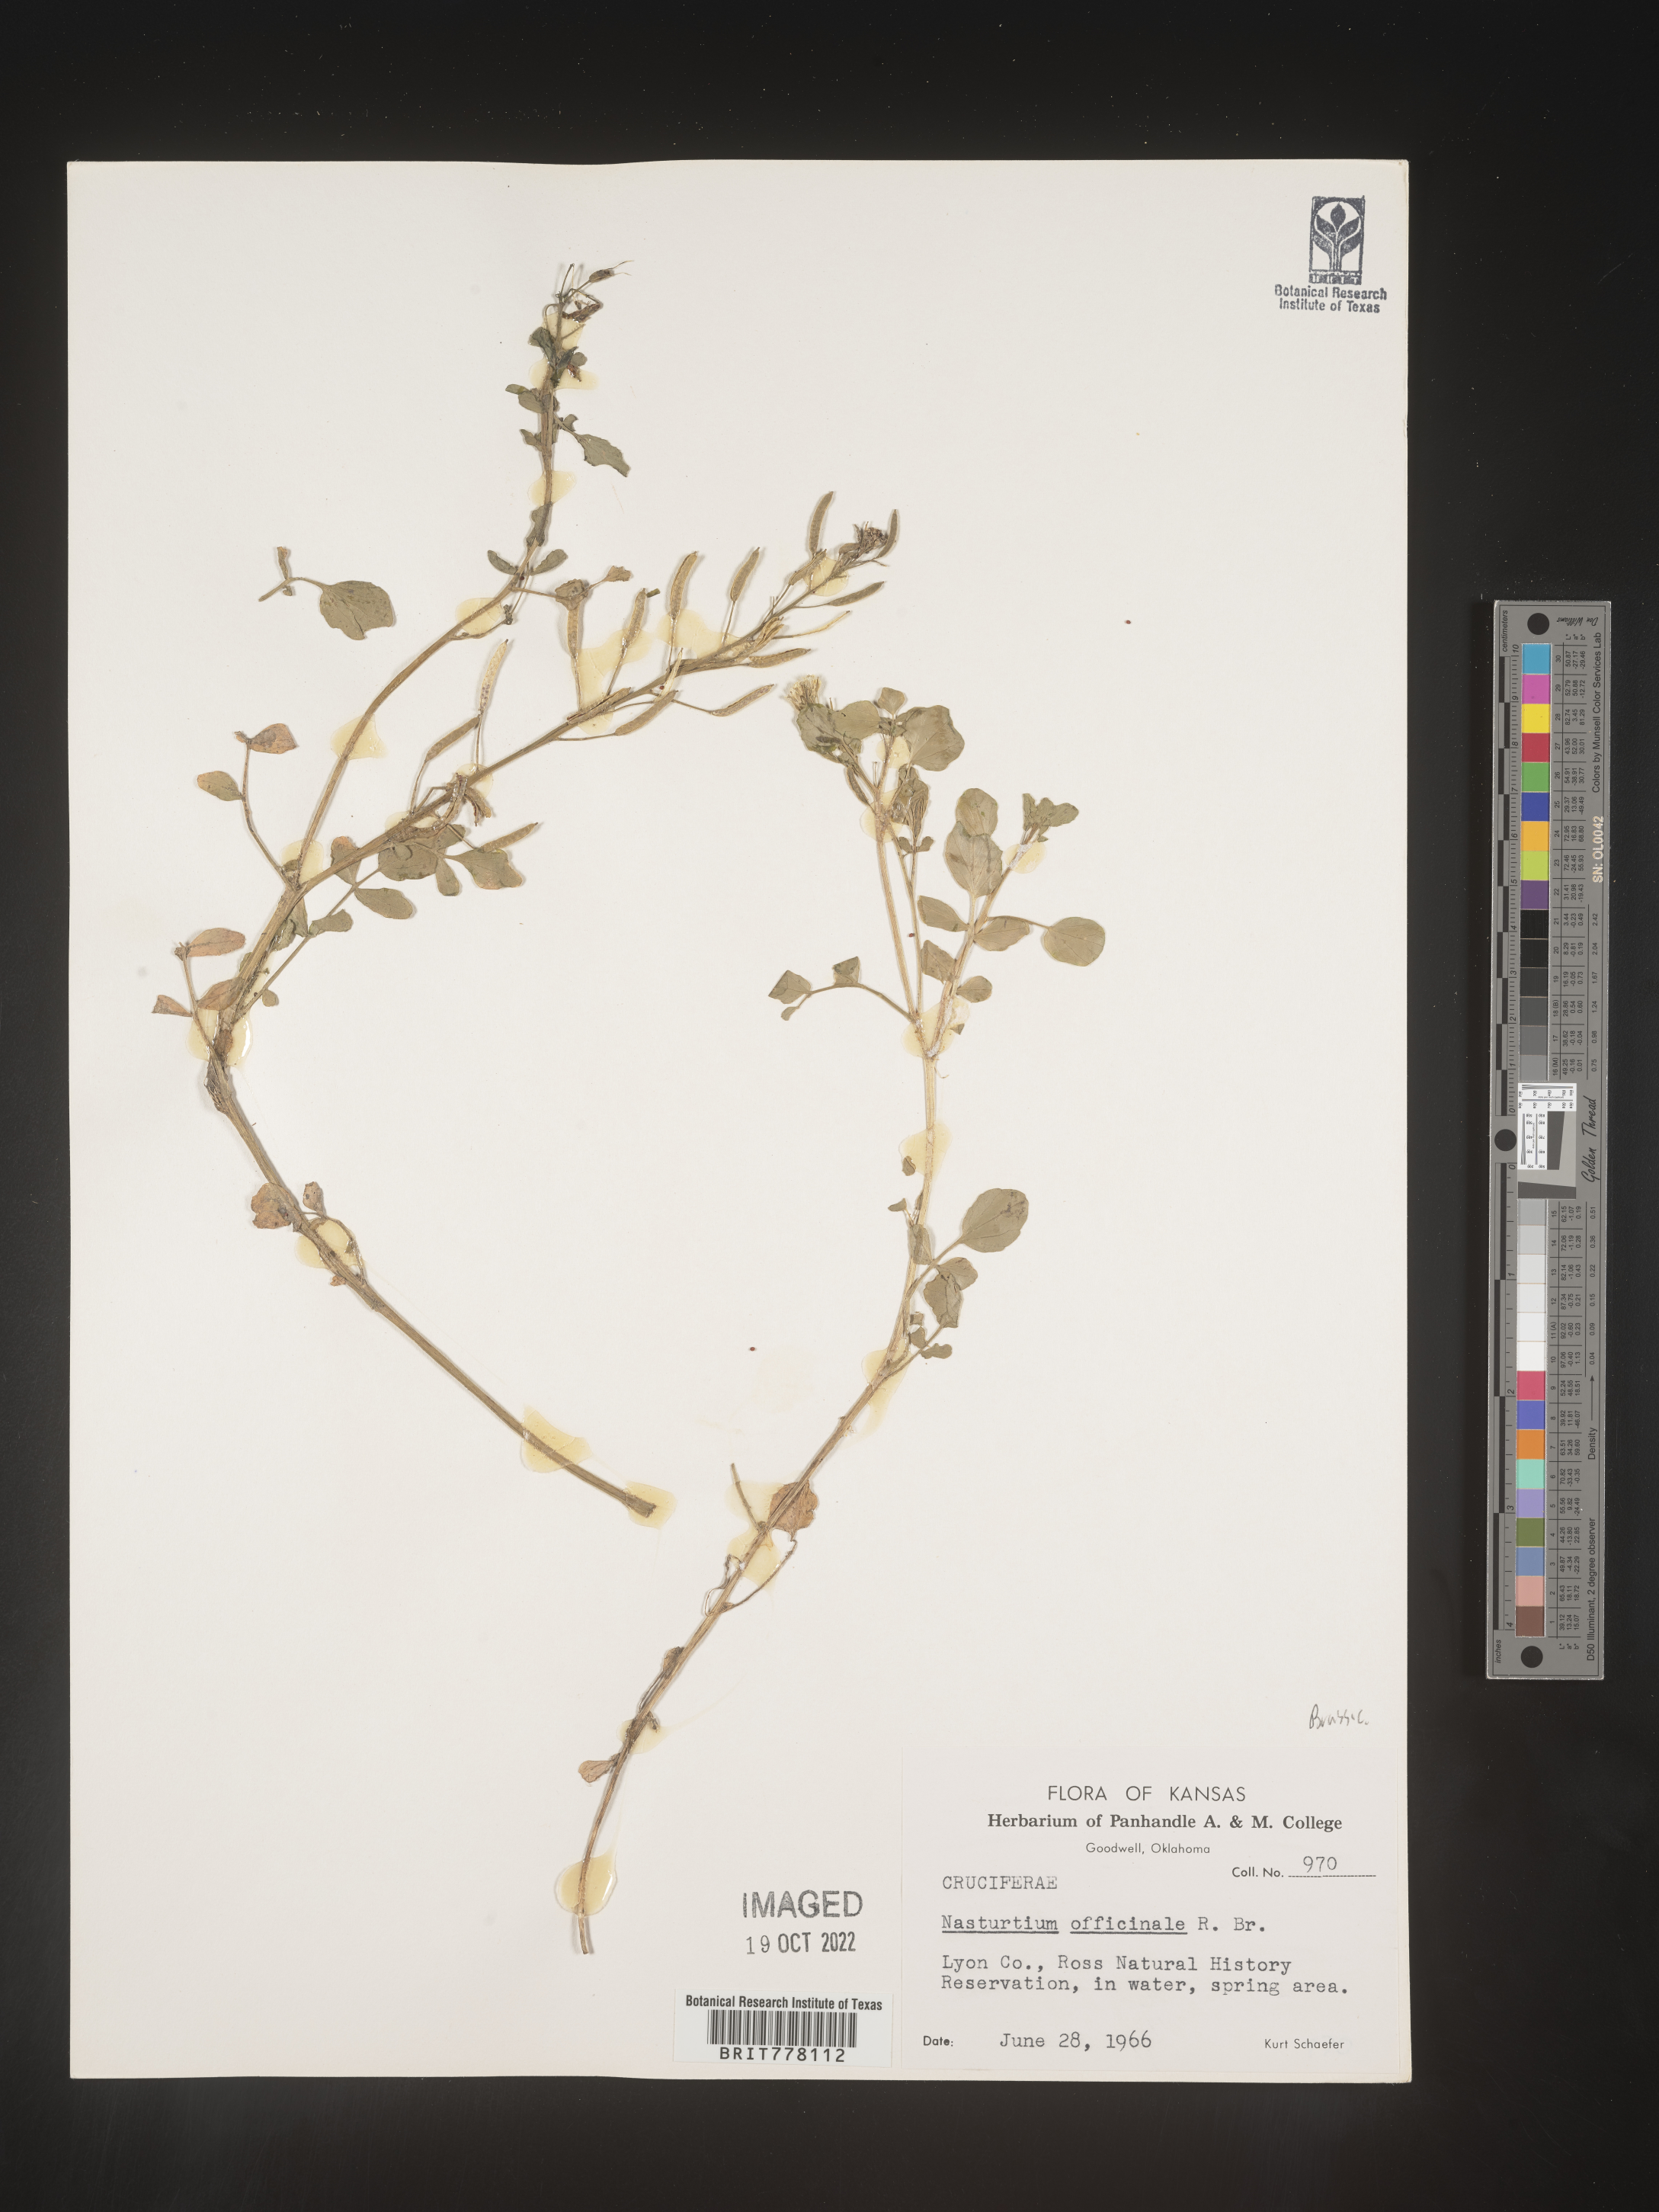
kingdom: Plantae
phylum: Tracheophyta
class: Magnoliopsida
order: Brassicales
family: Brassicaceae
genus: Nasturtium
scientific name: Nasturtium
